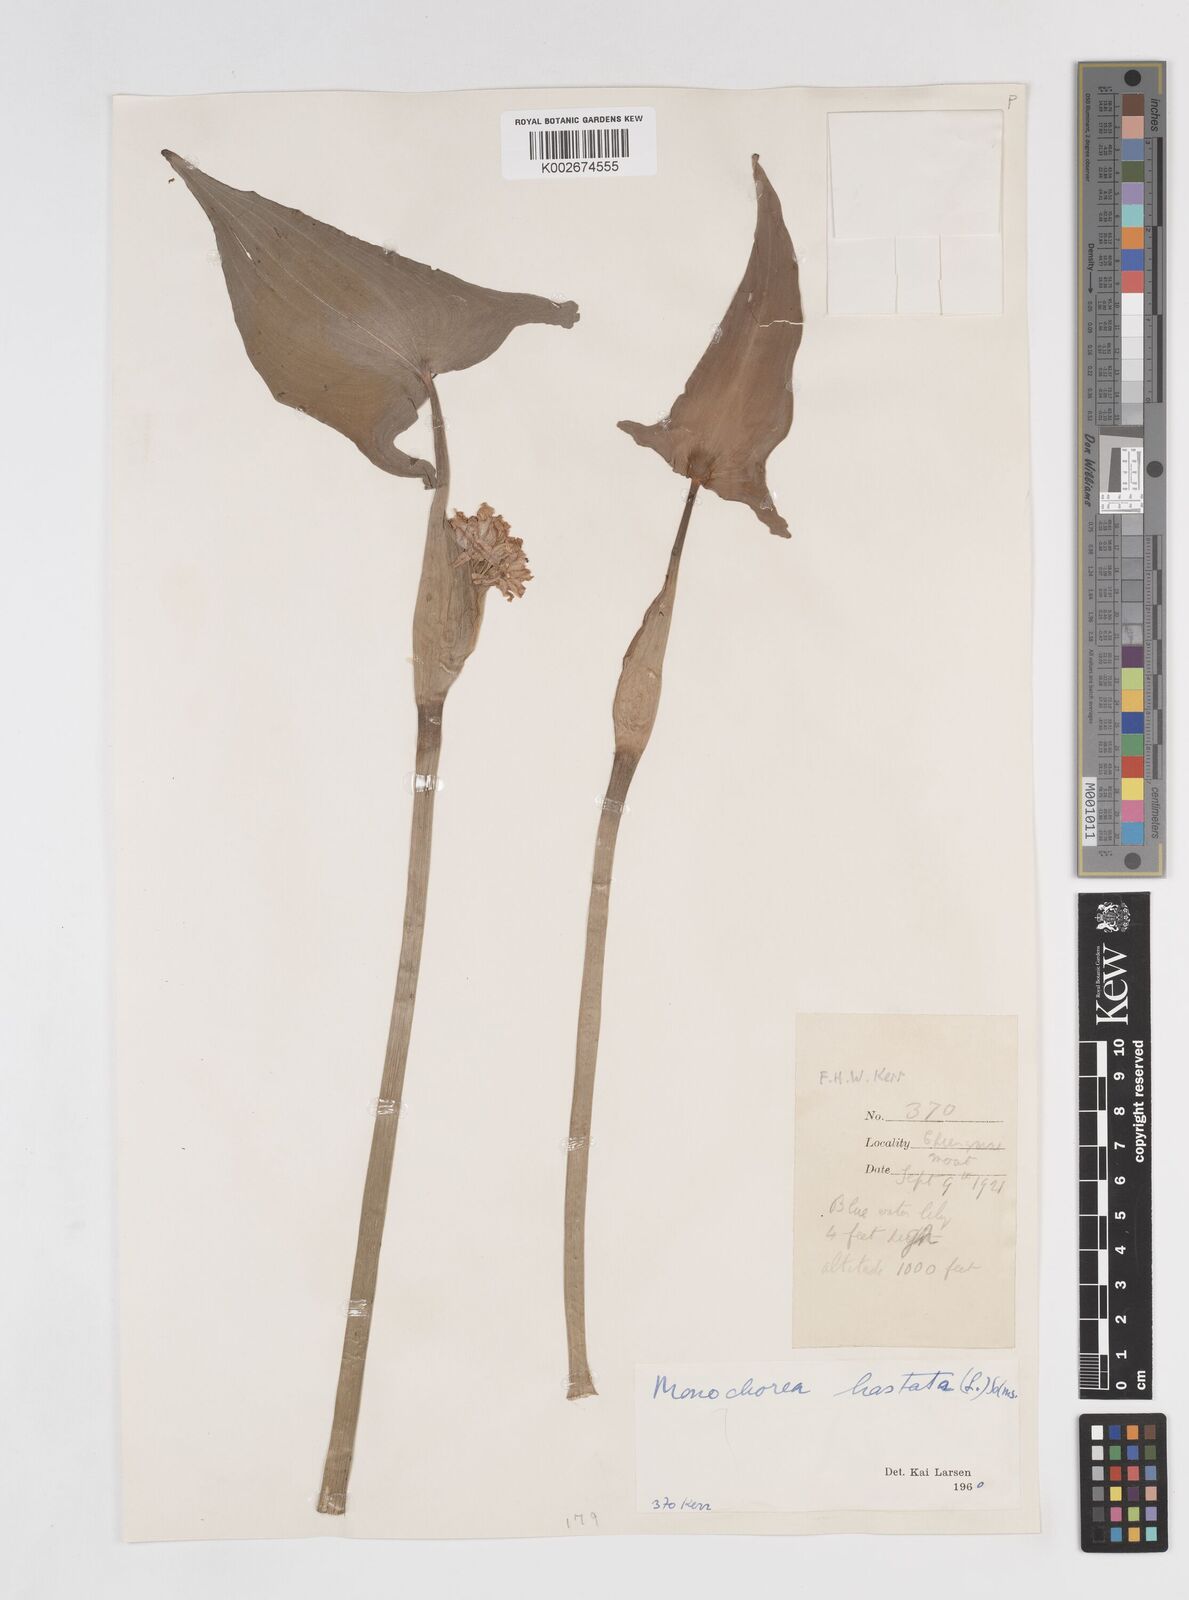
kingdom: Plantae
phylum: Tracheophyta
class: Liliopsida
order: Commelinales
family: Pontederiaceae
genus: Pontederia
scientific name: Pontederia hastata
